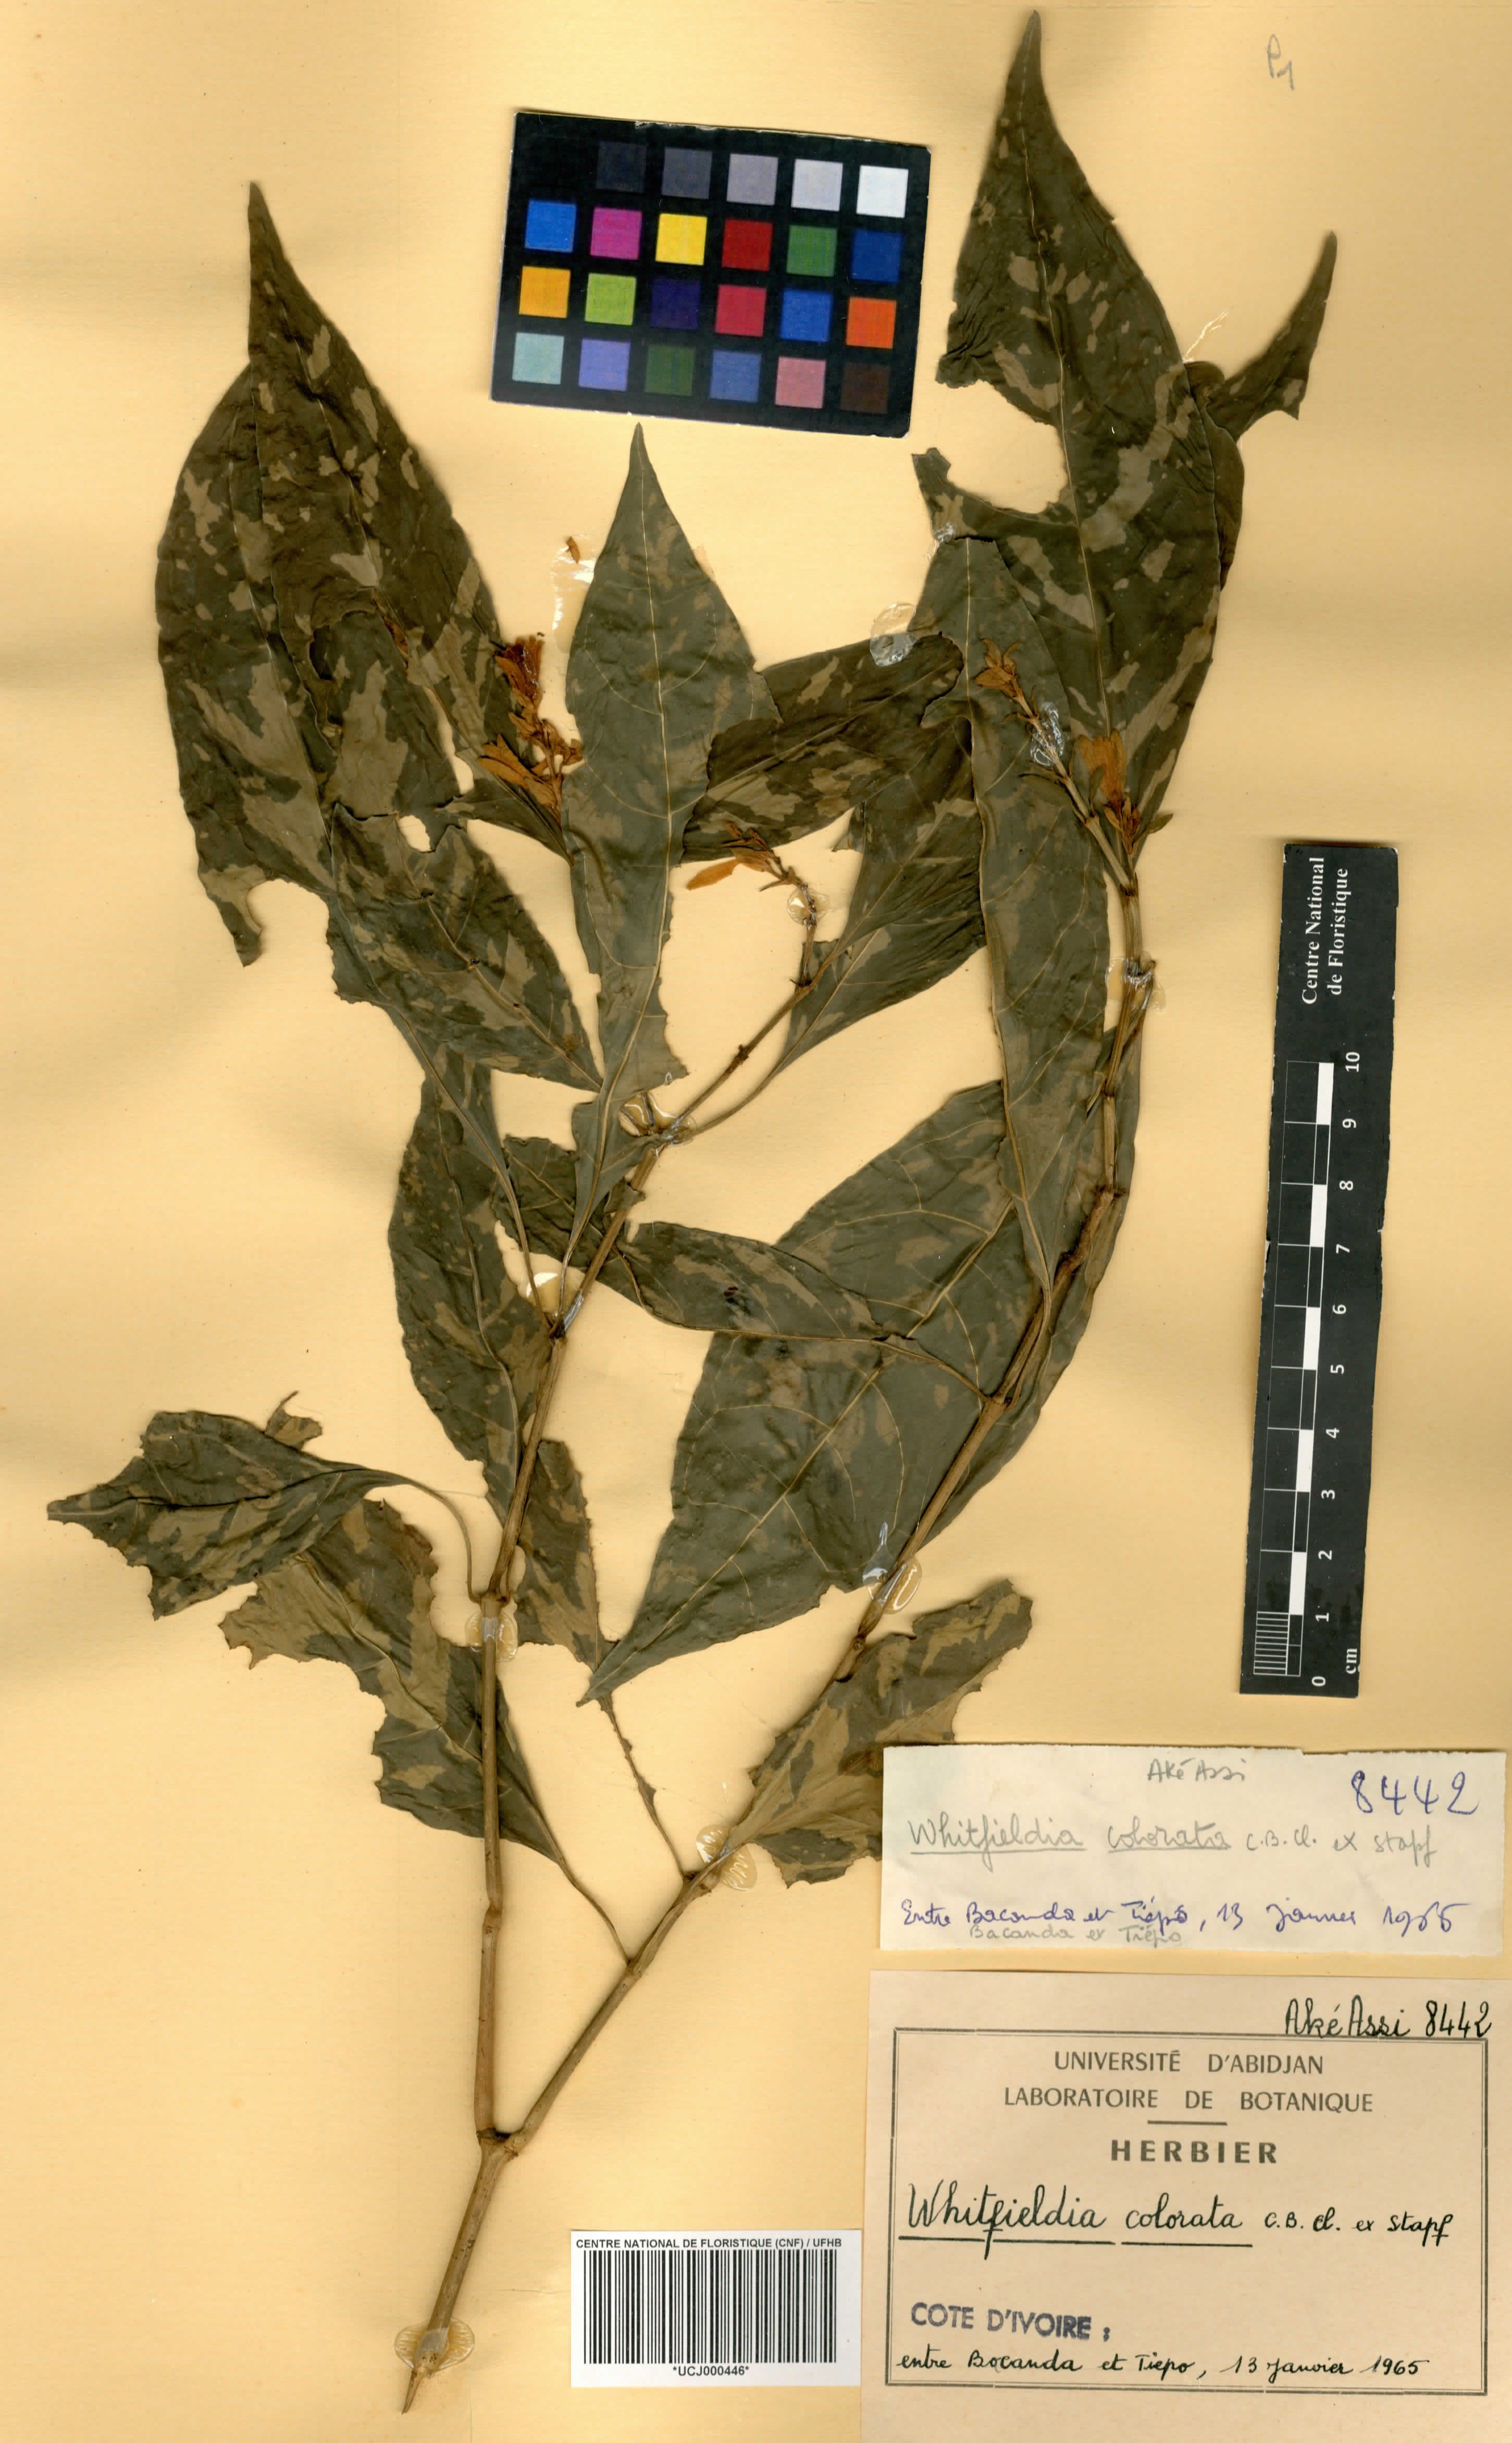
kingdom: Plantae
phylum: Tracheophyta
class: Magnoliopsida
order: Lamiales
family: Acanthaceae
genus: Whitfieldia
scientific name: Whitfieldia colorata
